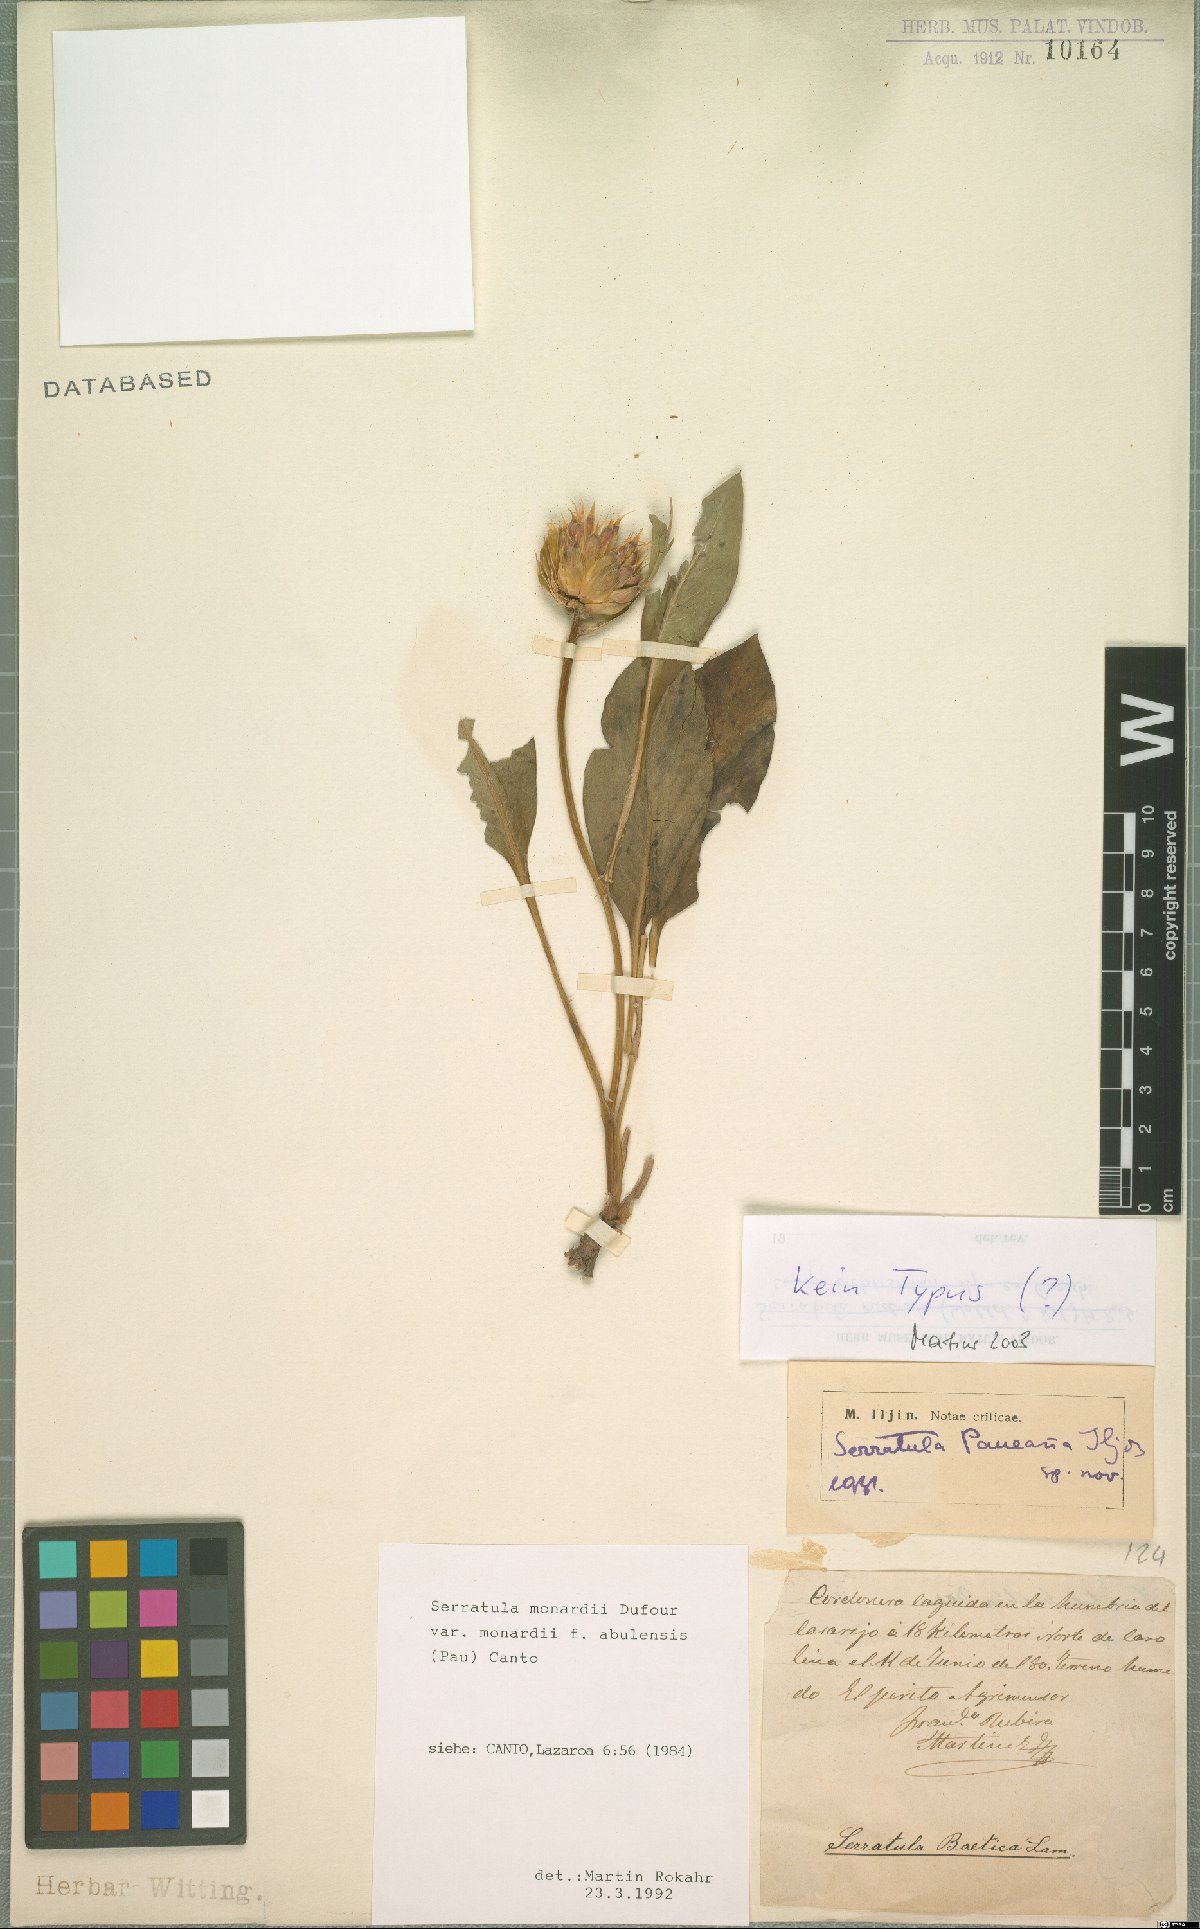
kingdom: Plantae
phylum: Tracheophyta
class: Magnoliopsida
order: Asterales
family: Asteraceae
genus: Klasea
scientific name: Klasea integrifolia
